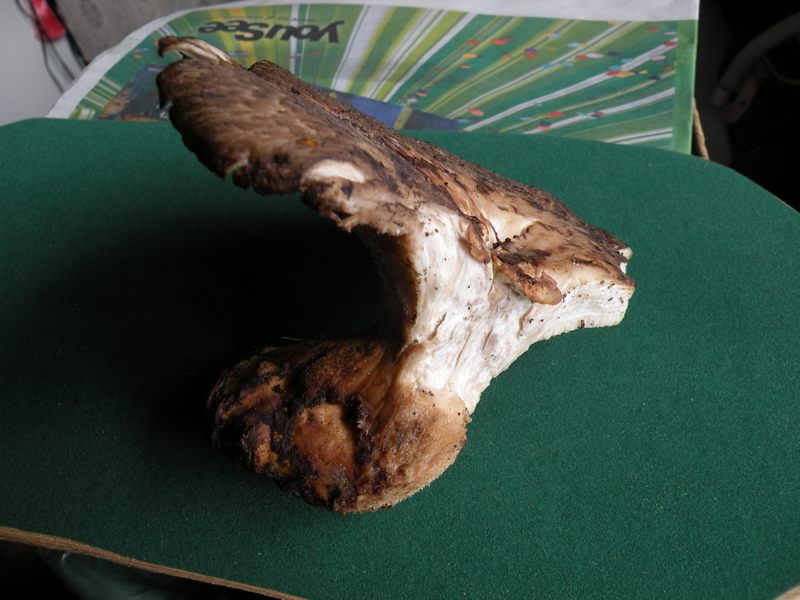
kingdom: Fungi
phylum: Basidiomycota
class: Agaricomycetes
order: Polyporales
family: Polyporaceae
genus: Polyporus
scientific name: Polyporus tuberaster
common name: knoldet stilkporesvamp
